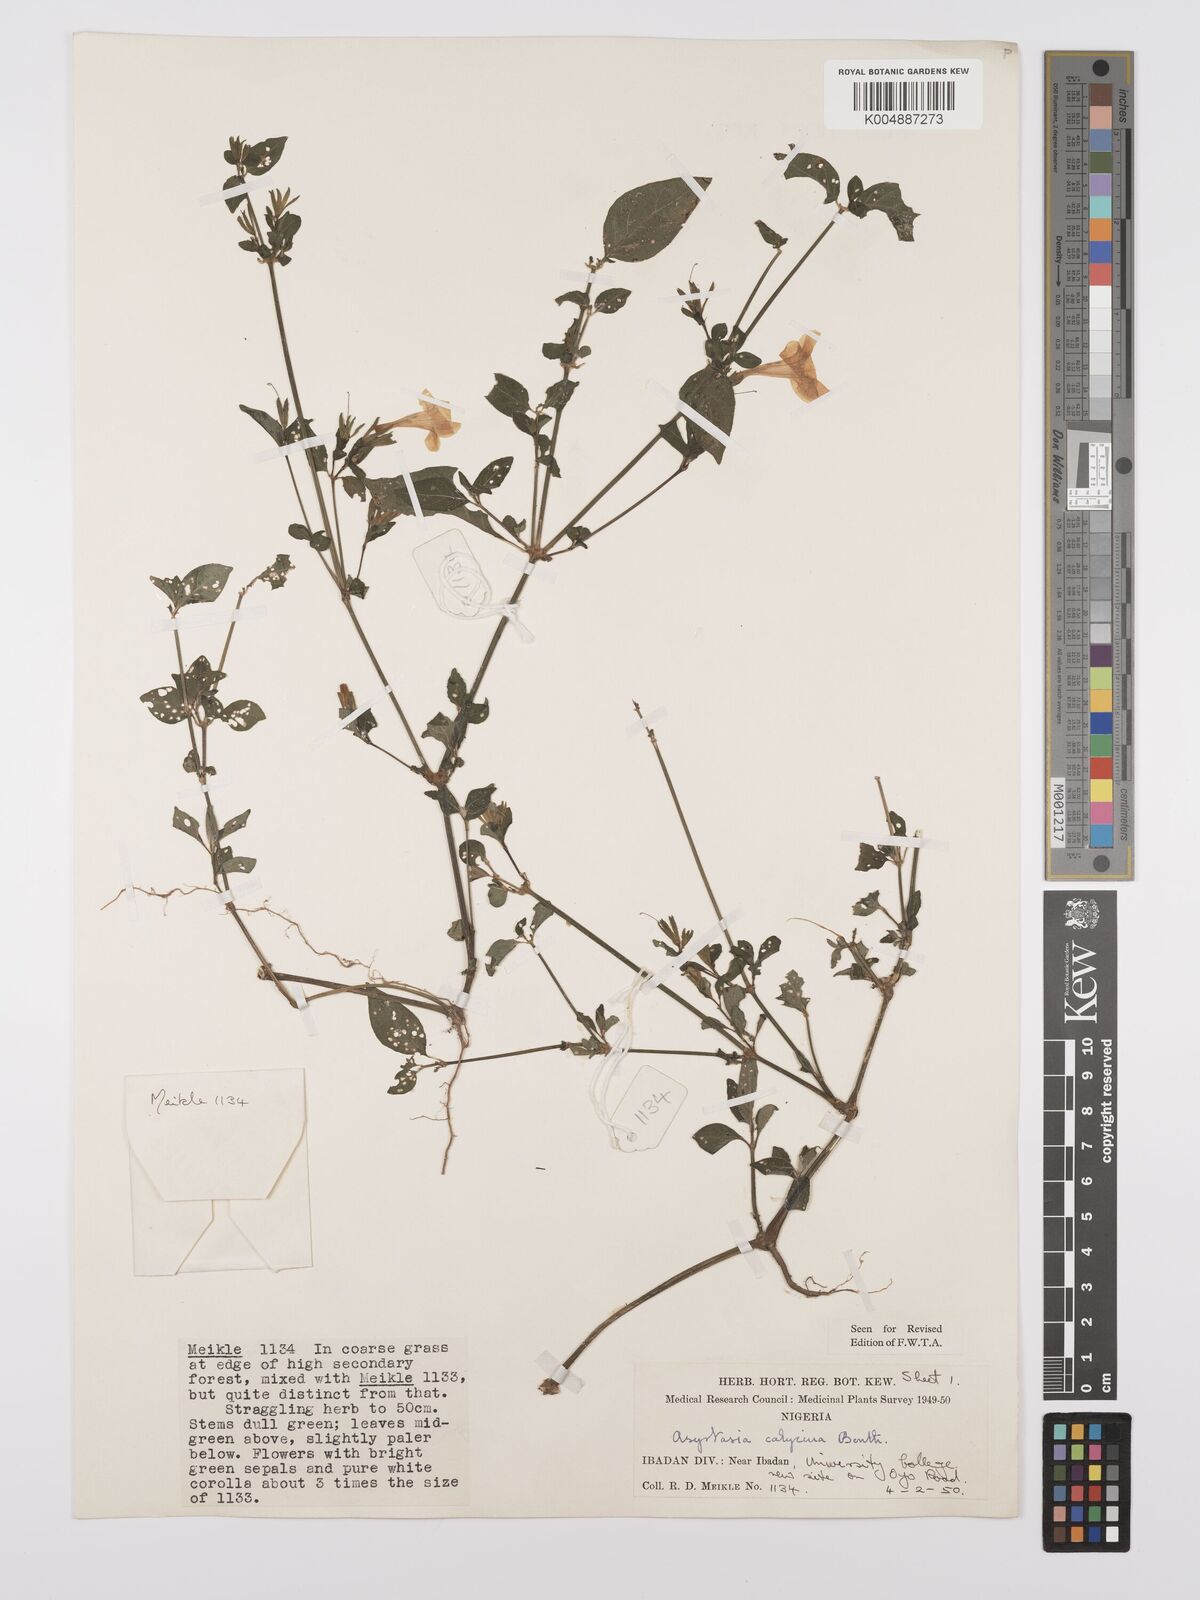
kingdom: Plantae
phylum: Tracheophyta
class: Magnoliopsida
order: Lamiales
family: Acanthaceae
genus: Asystasia
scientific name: Asystasia buettneri
